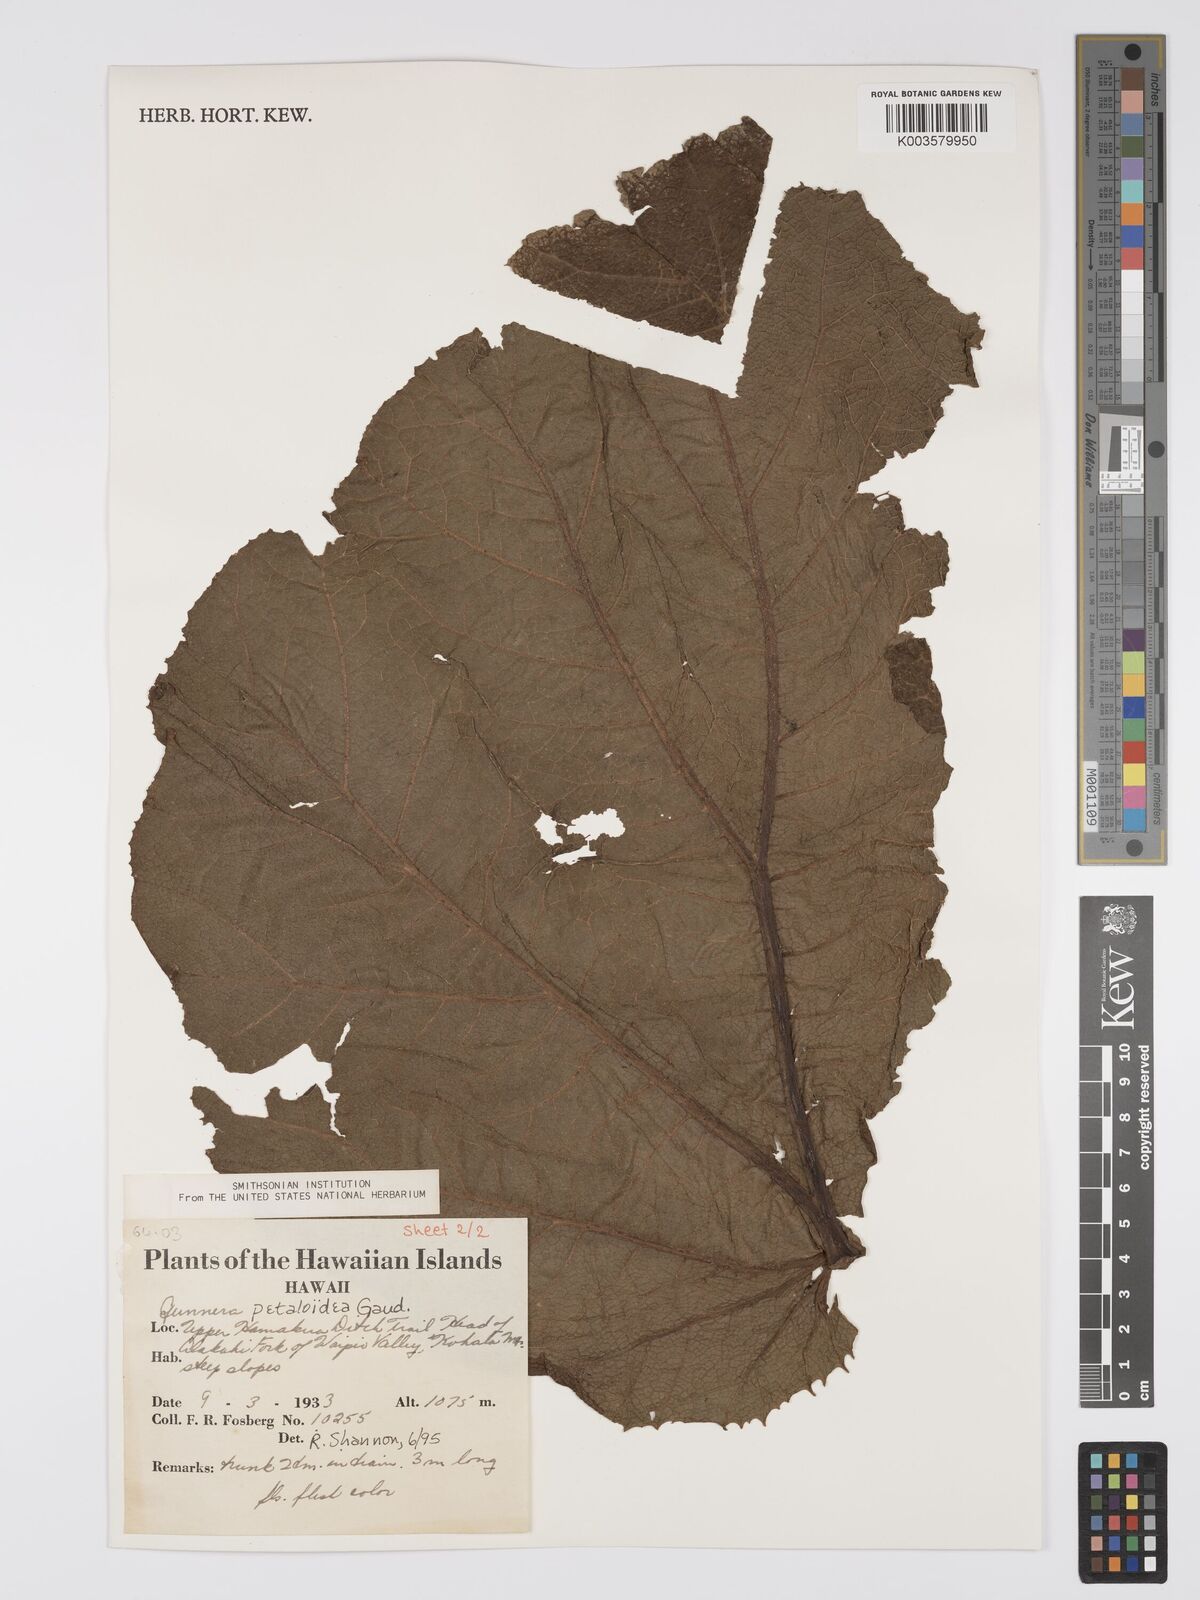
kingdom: Plantae
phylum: Tracheophyta
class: Magnoliopsida
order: Gunnerales
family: Gunneraceae
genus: Gunnera
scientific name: Gunnera petaloidea
